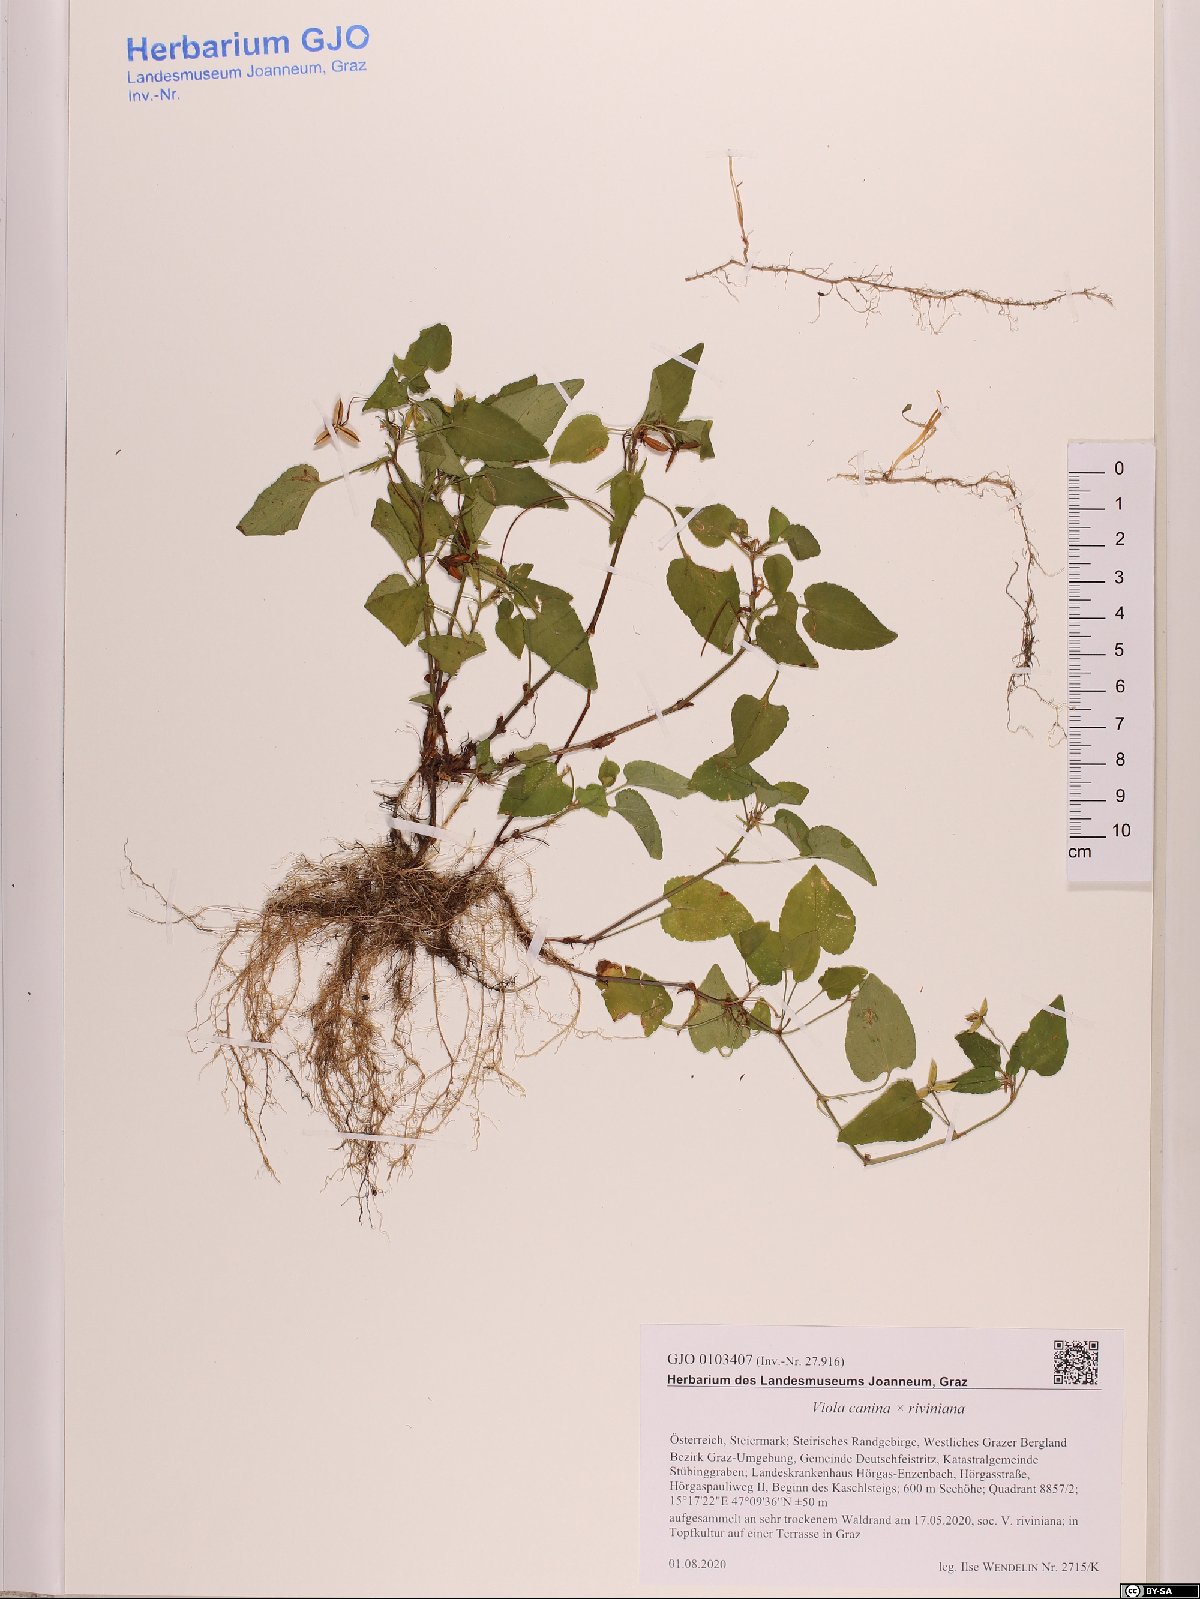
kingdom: Plantae
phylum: Tracheophyta
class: Magnoliopsida
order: Malpighiales
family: Violaceae
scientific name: Violaceae
